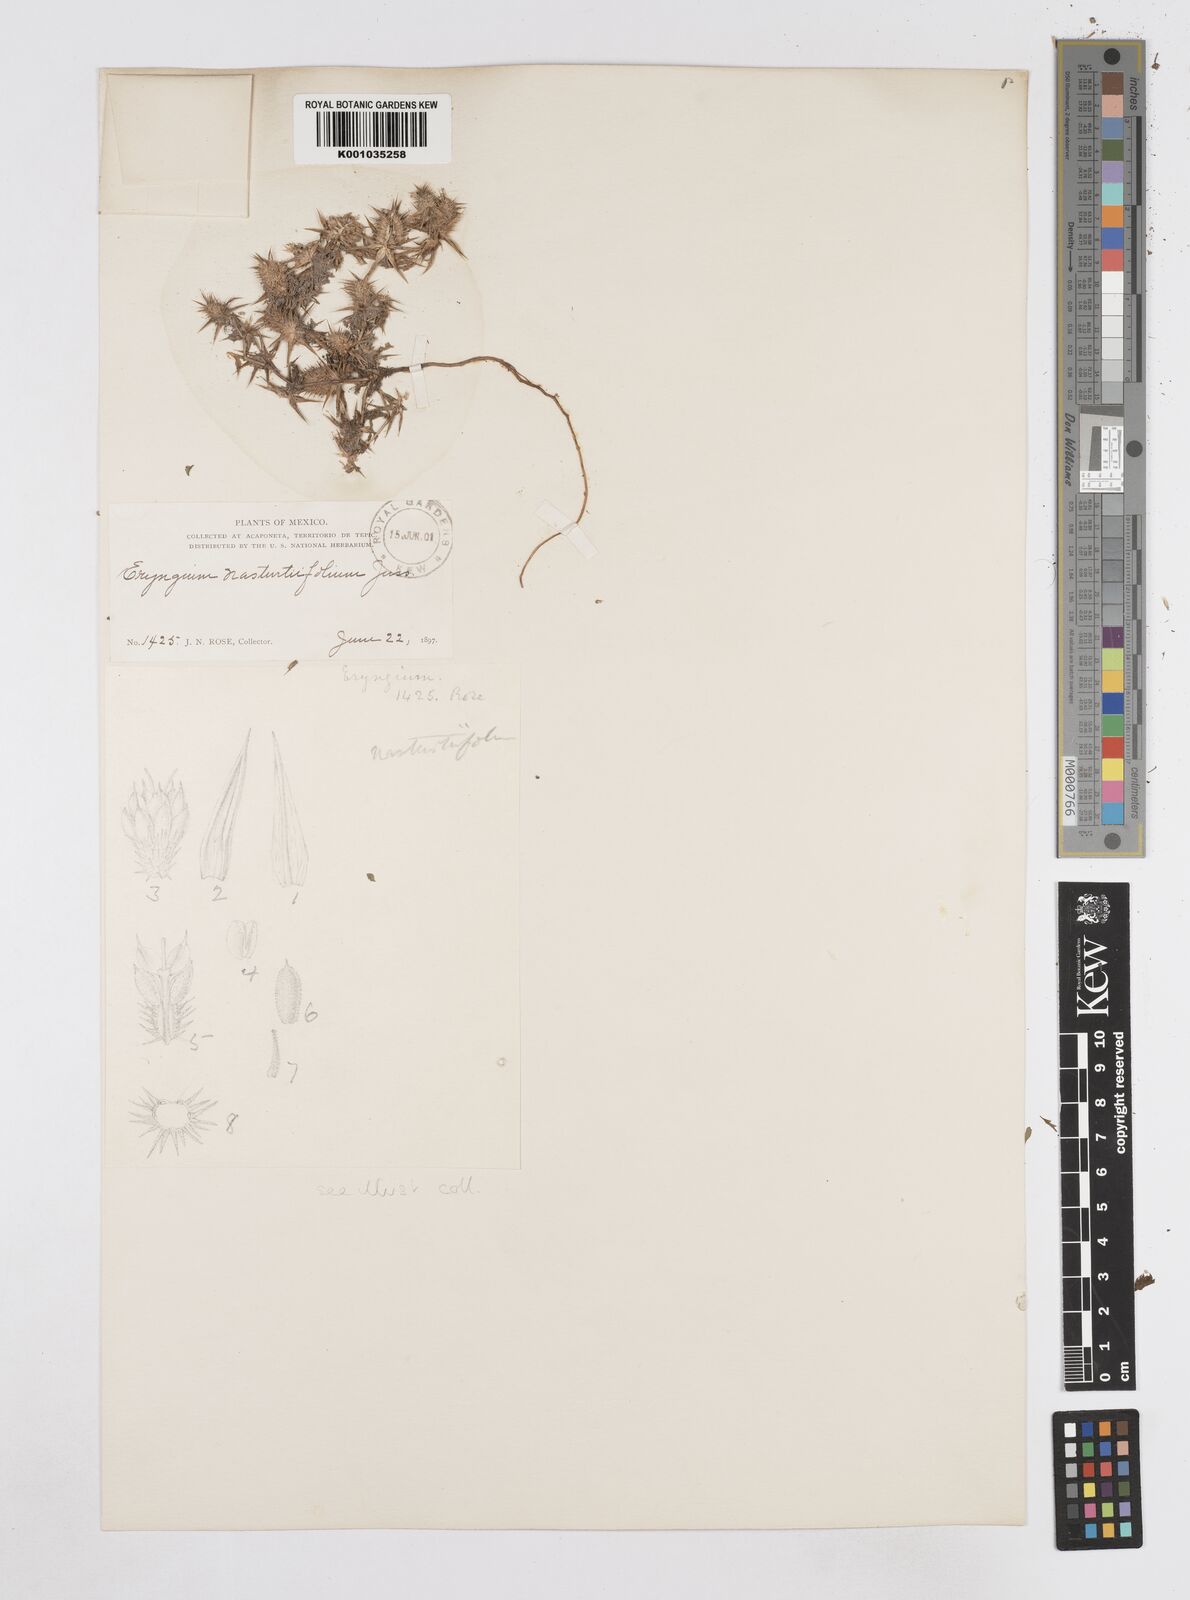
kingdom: Plantae
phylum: Tracheophyta
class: Magnoliopsida
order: Apiales
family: Apiaceae
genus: Eryngium
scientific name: Eryngium nasturtiifolium
